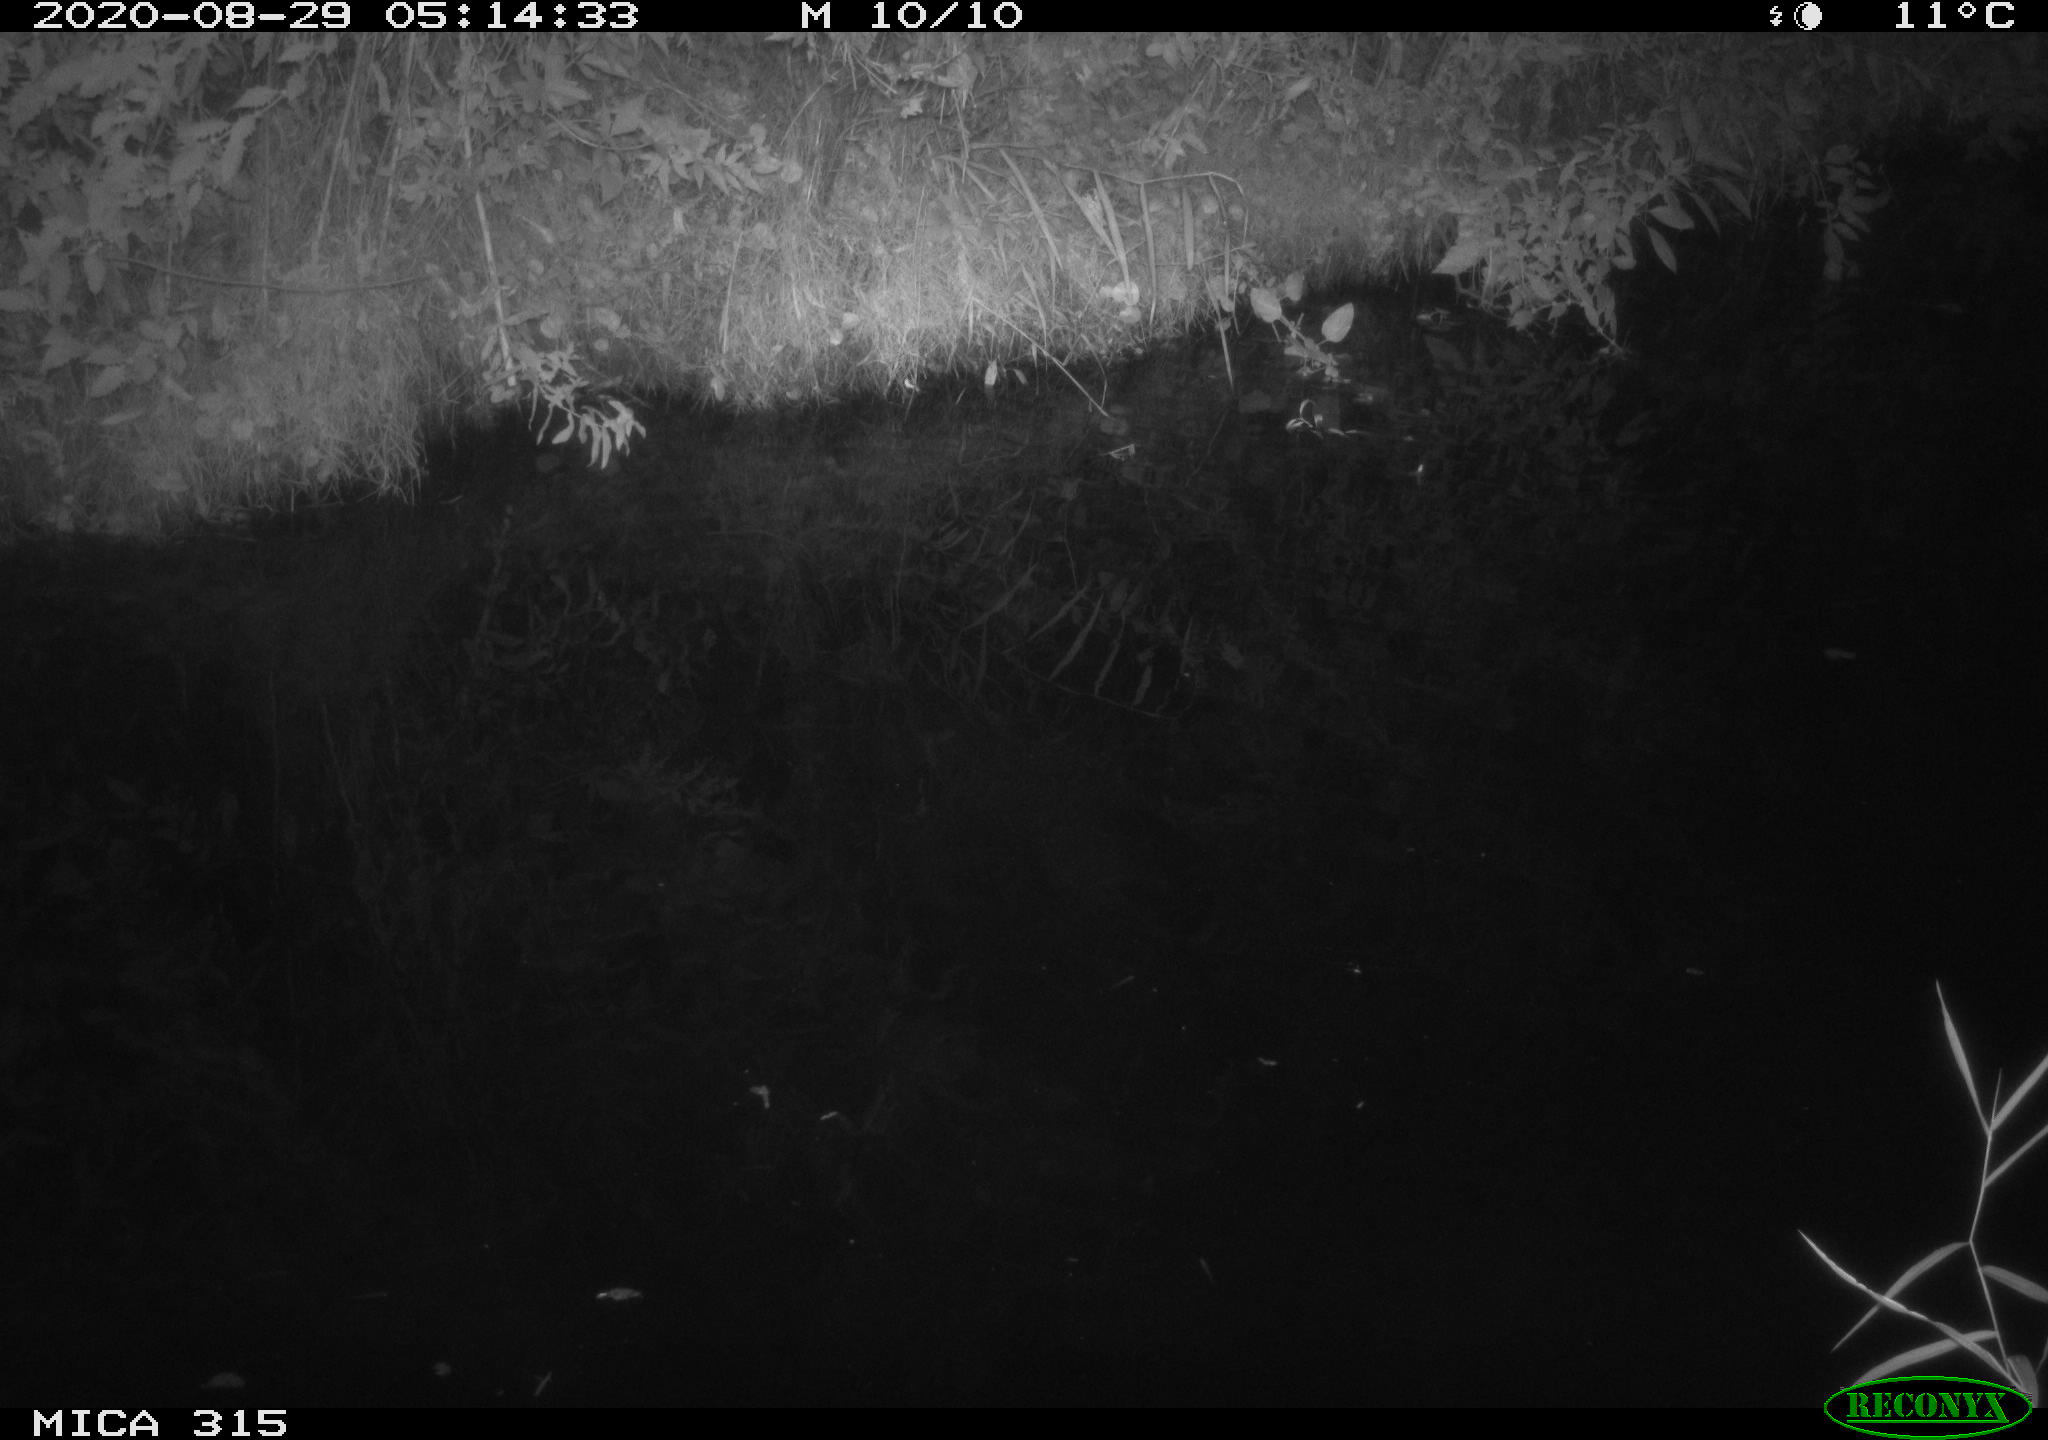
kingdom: Animalia
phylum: Chordata
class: Aves
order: Anseriformes
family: Anatidae
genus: Anas
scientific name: Anas platyrhynchos
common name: Mallard
